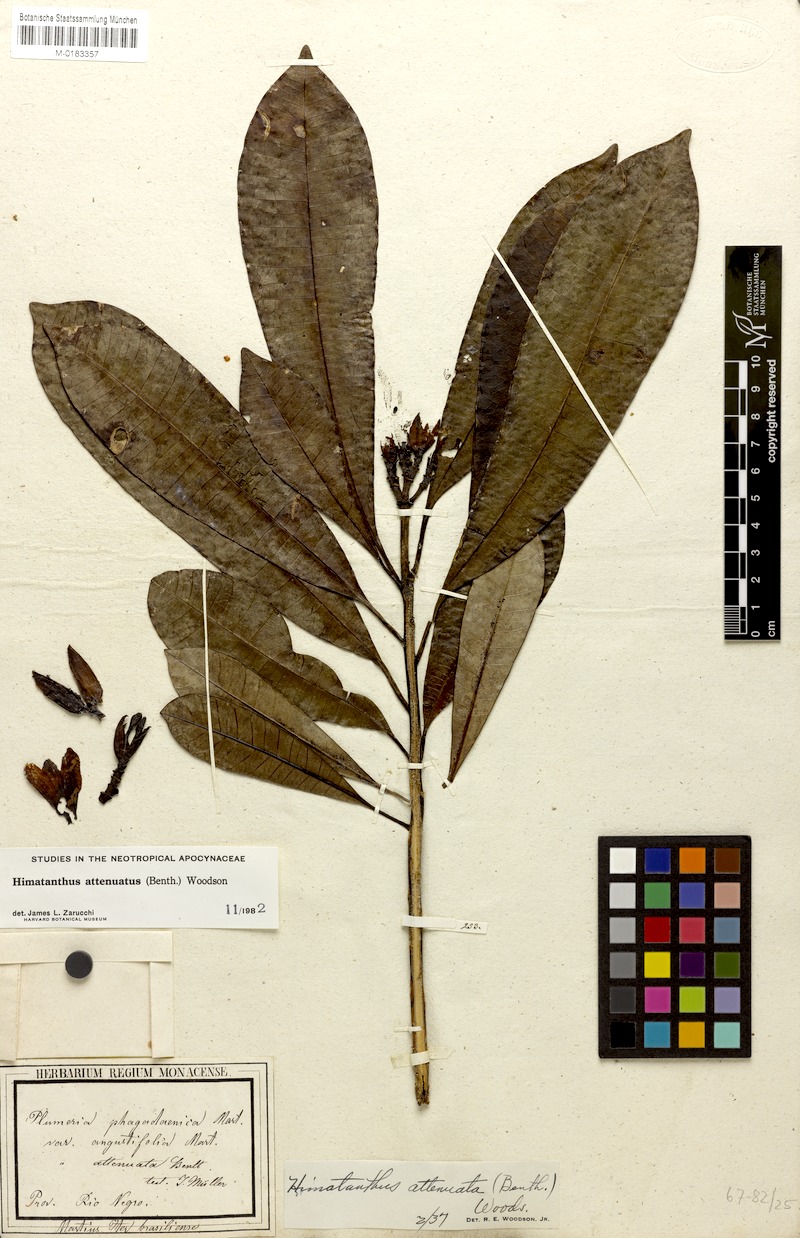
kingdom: Plantae
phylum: Tracheophyta
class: Magnoliopsida
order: Gentianales
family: Apocynaceae
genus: Himatanthus
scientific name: Himatanthus attenuatus
